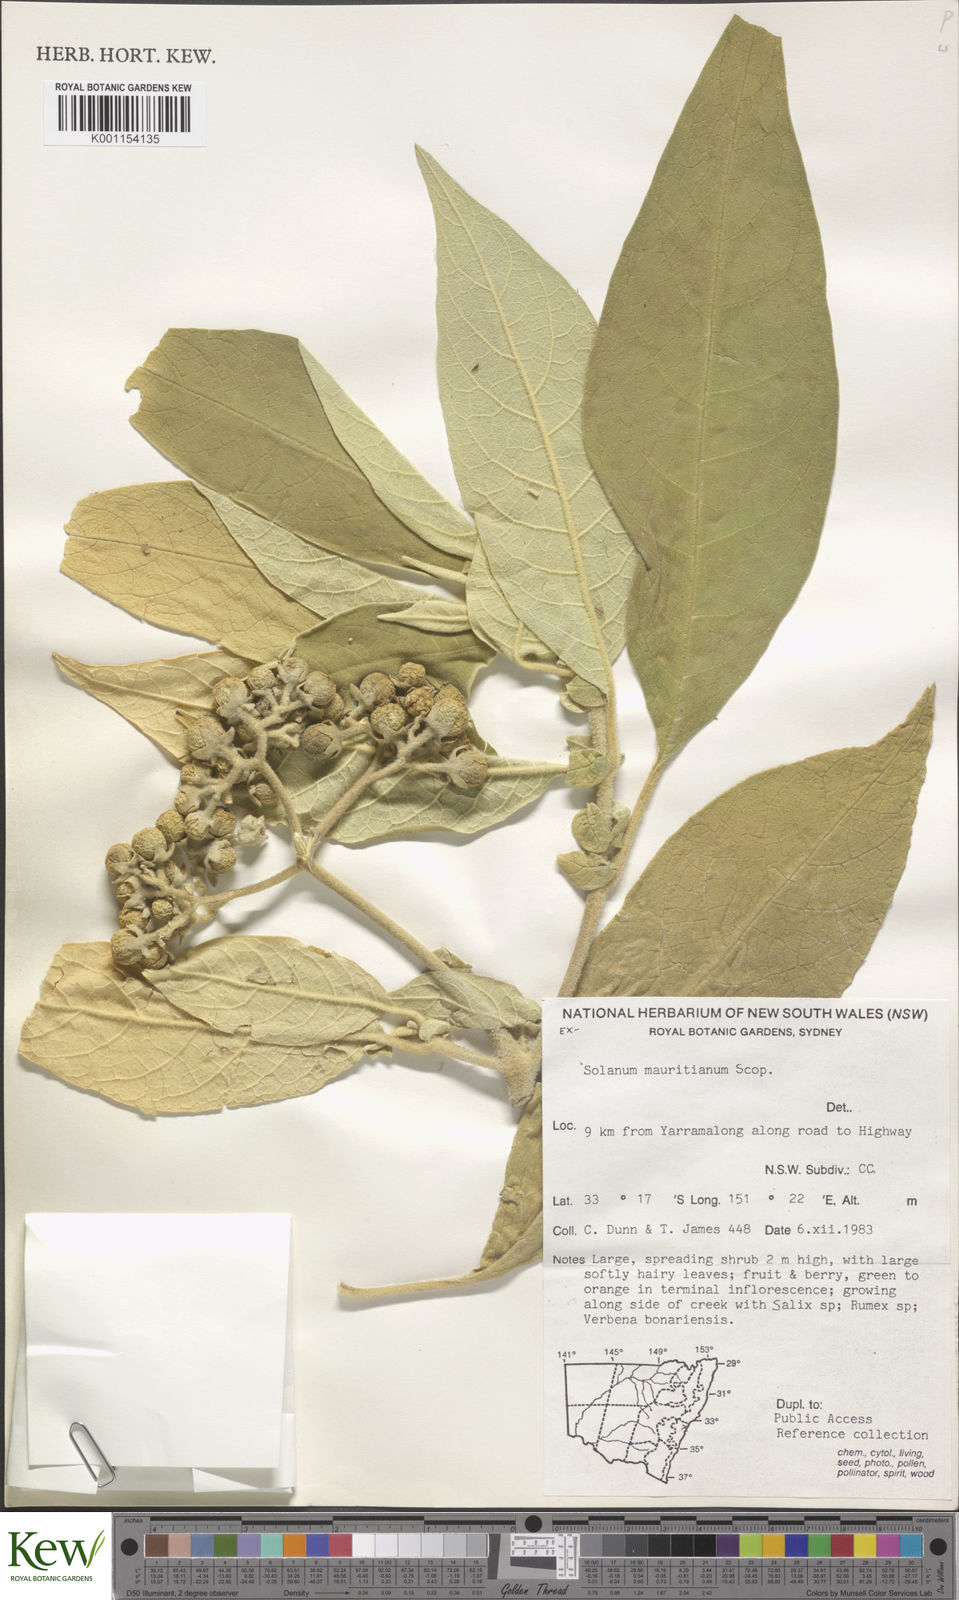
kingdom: Plantae
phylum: Tracheophyta
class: Magnoliopsida
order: Solanales
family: Solanaceae
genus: Solanum
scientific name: Solanum mauritianum
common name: Earleaf nightshade
